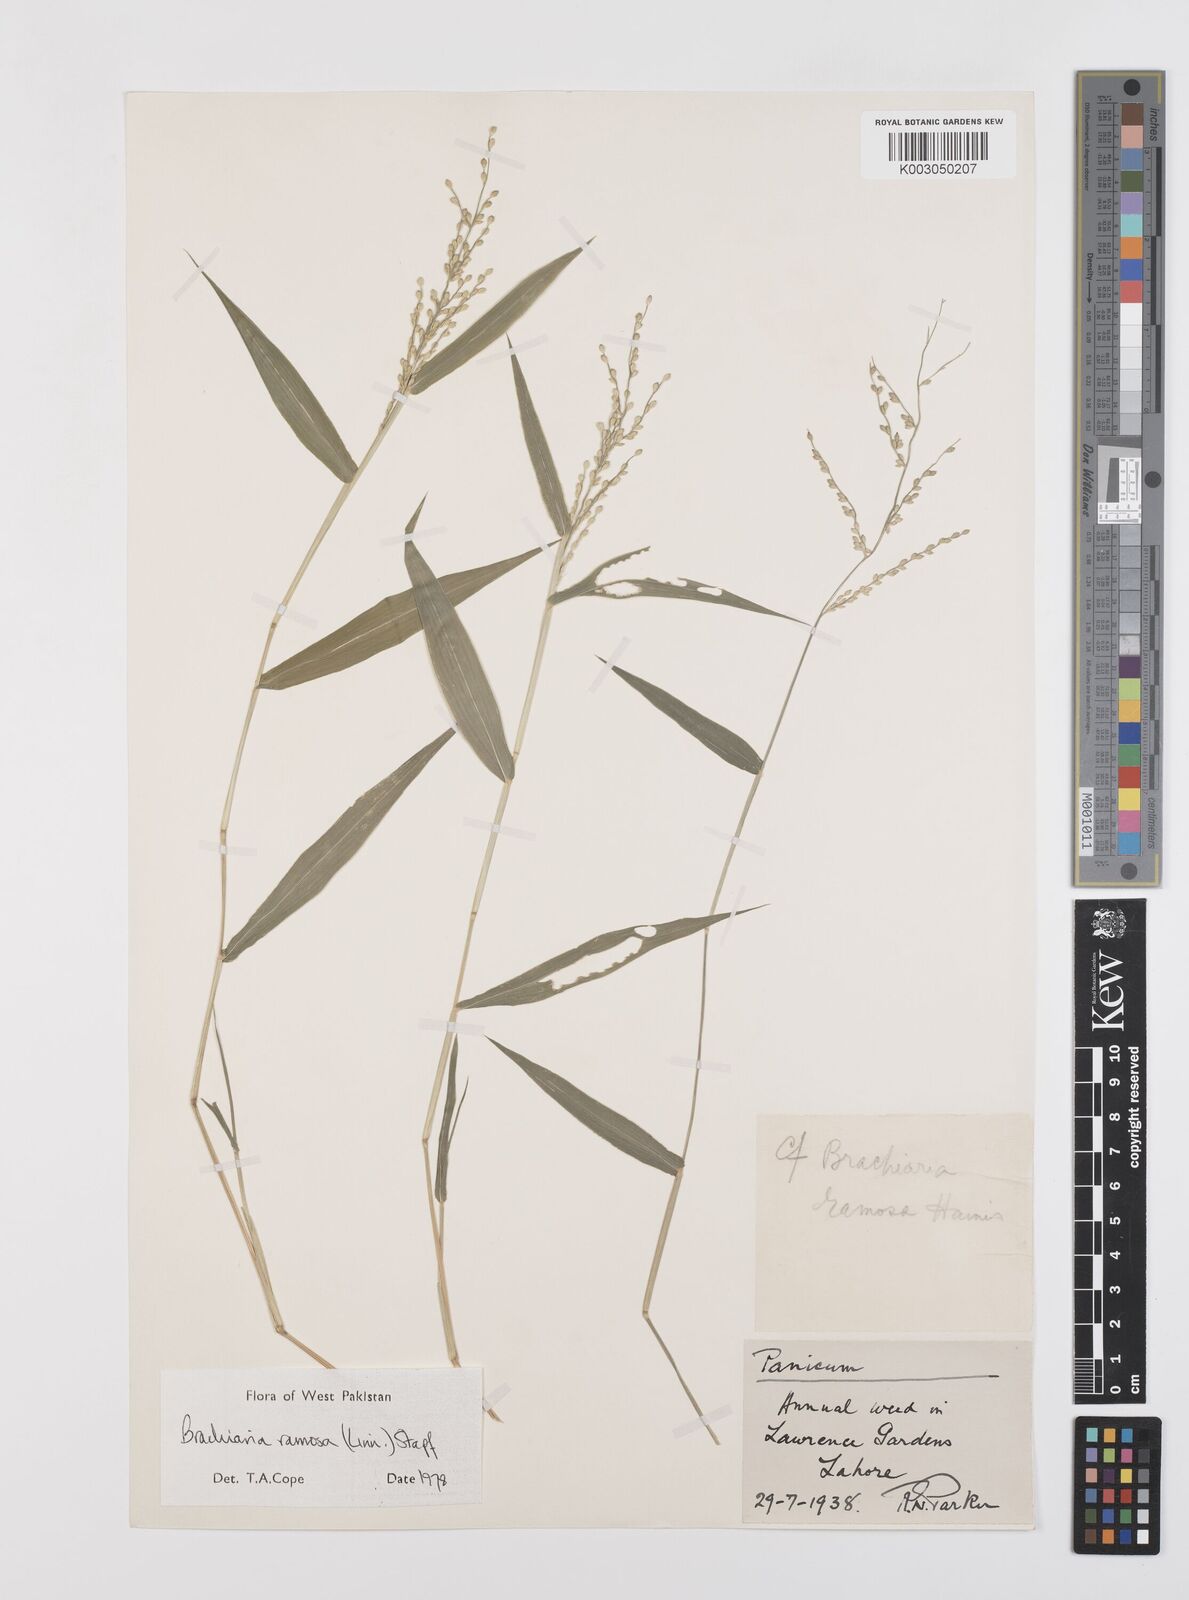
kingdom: Plantae
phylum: Tracheophyta
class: Liliopsida
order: Poales
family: Poaceae
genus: Urochloa
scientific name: Urochloa ramosa
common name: Browntop millet
